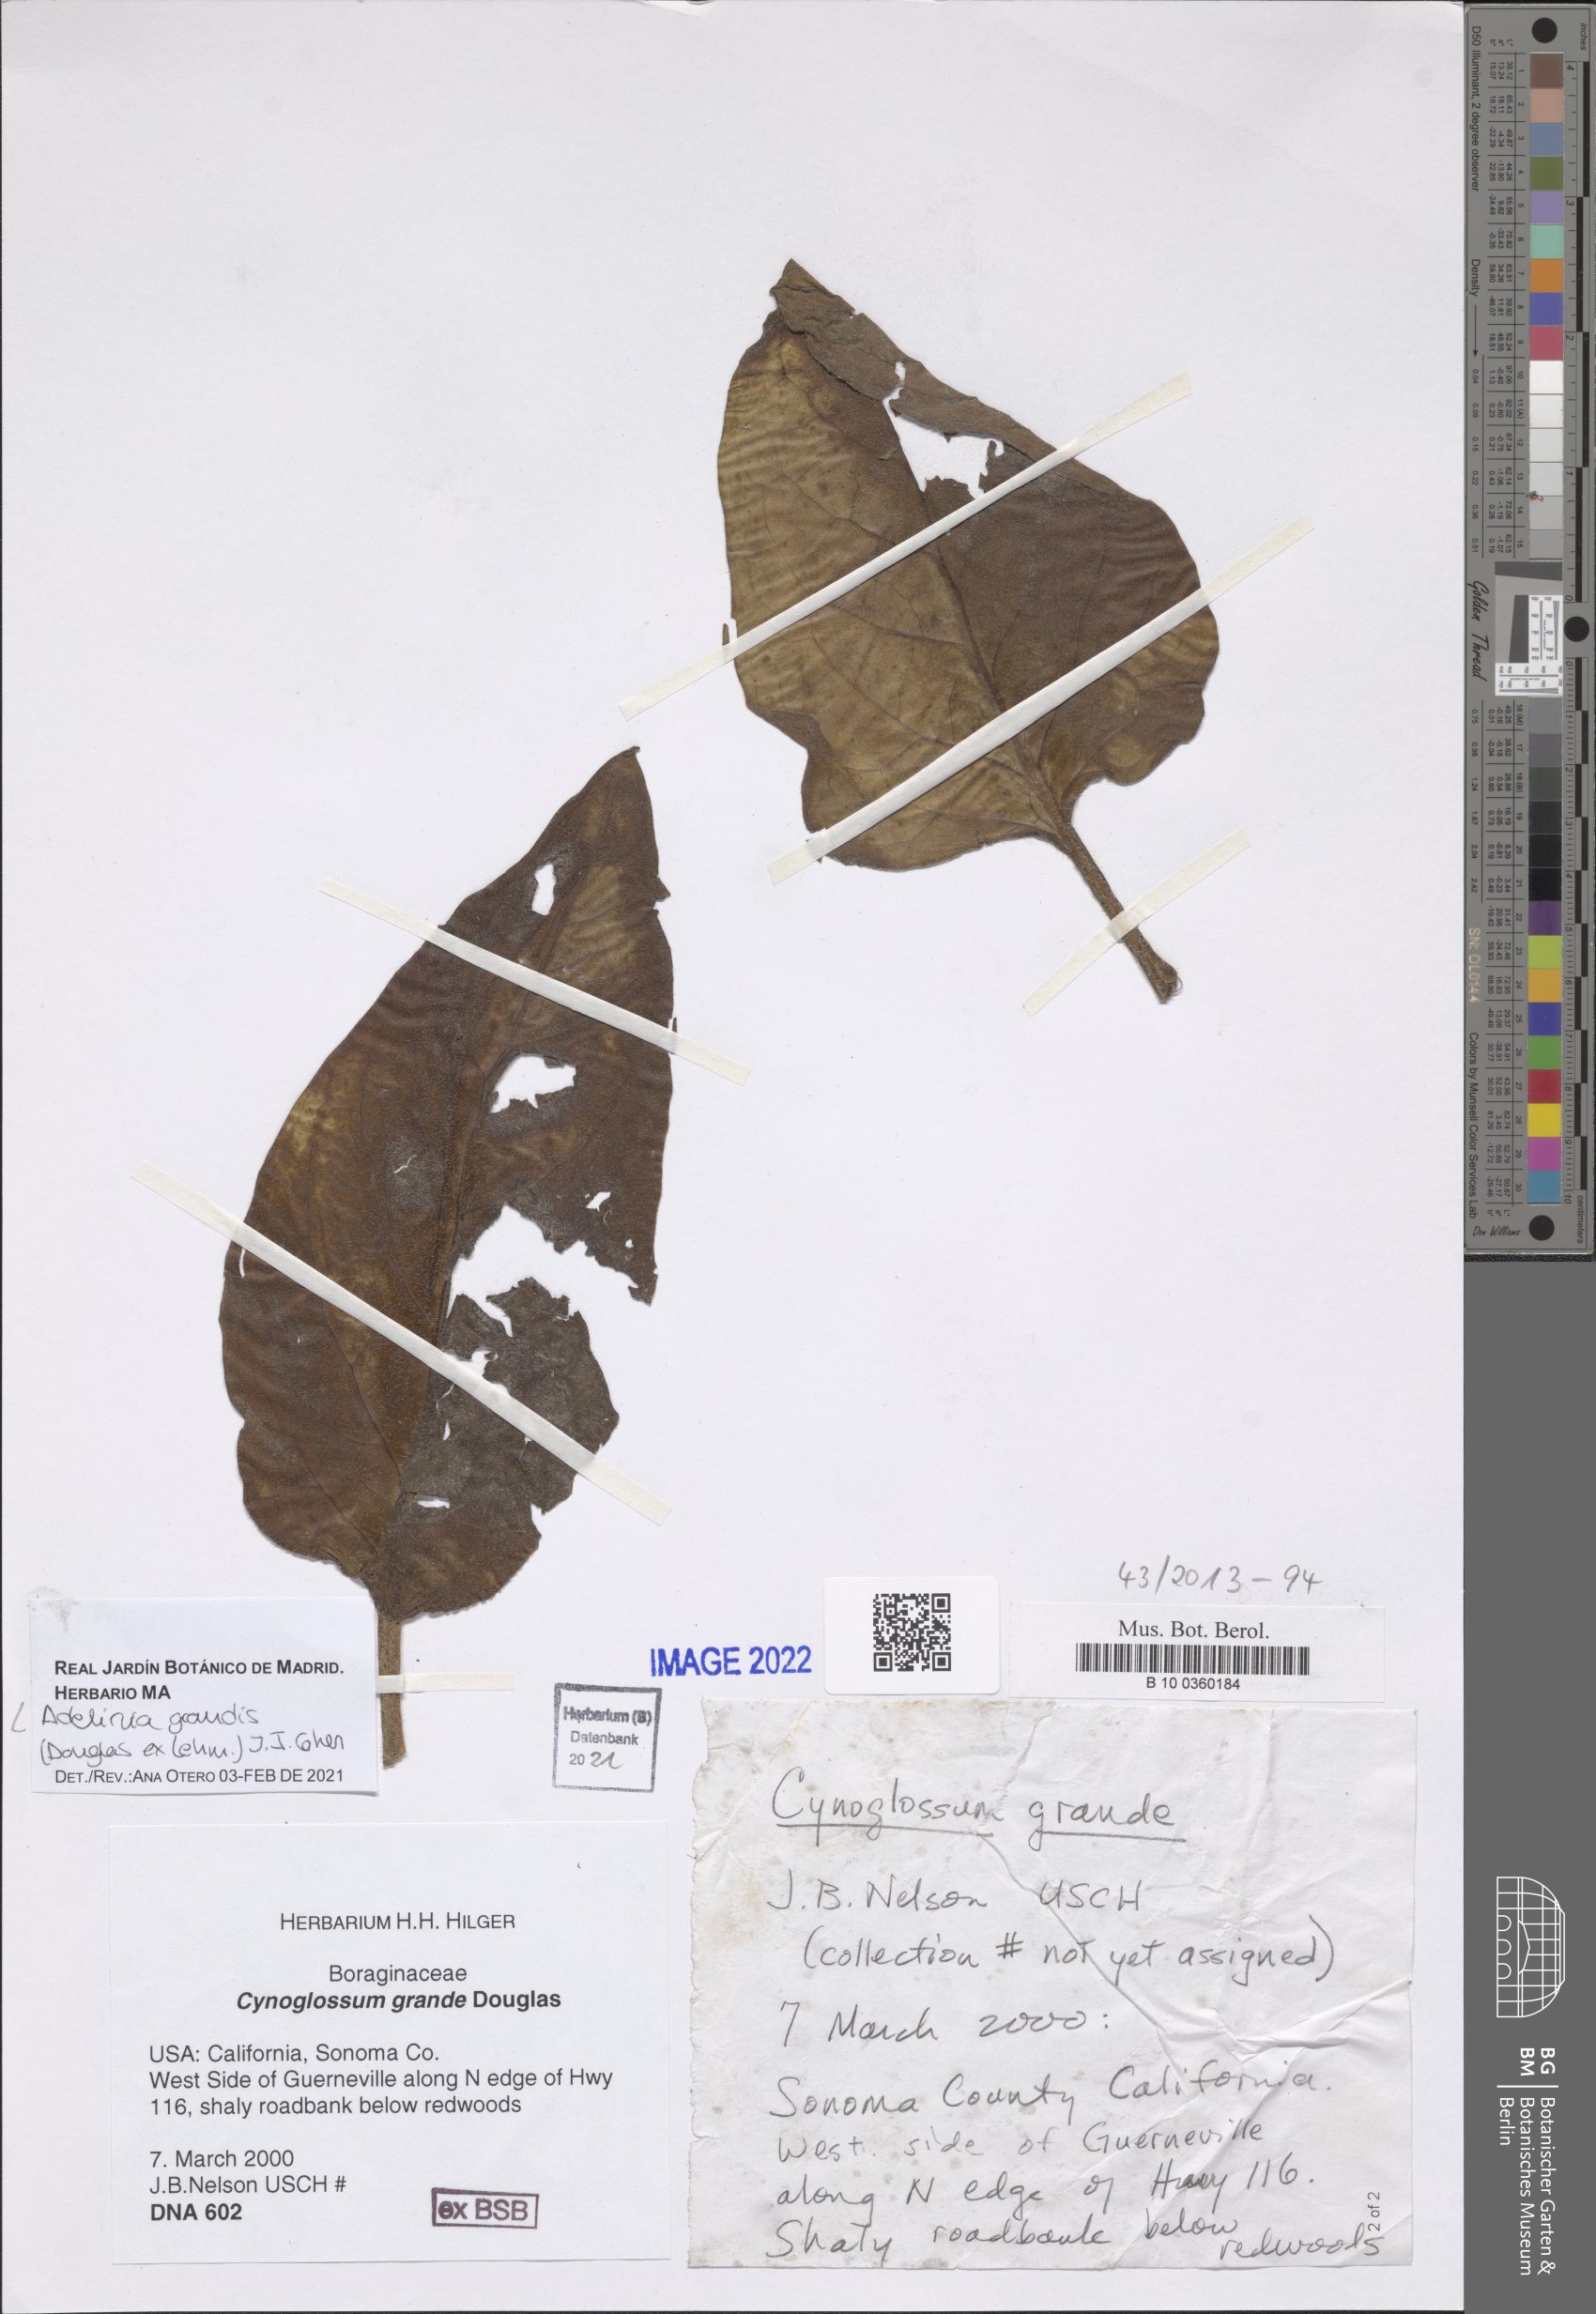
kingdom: Plantae
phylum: Tracheophyta
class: Magnoliopsida
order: Boraginales
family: Boraginaceae
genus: Adelinia
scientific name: Adelinia grande
